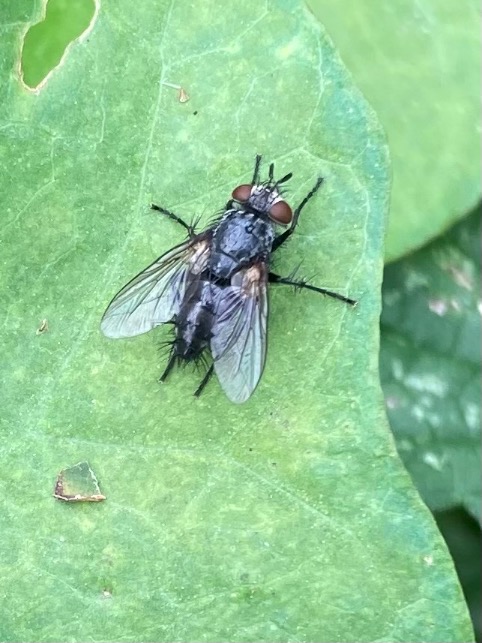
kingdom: Animalia
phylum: Arthropoda
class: Insecta
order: Diptera
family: Tachinidae
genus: Voria
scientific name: Voria ruralis
